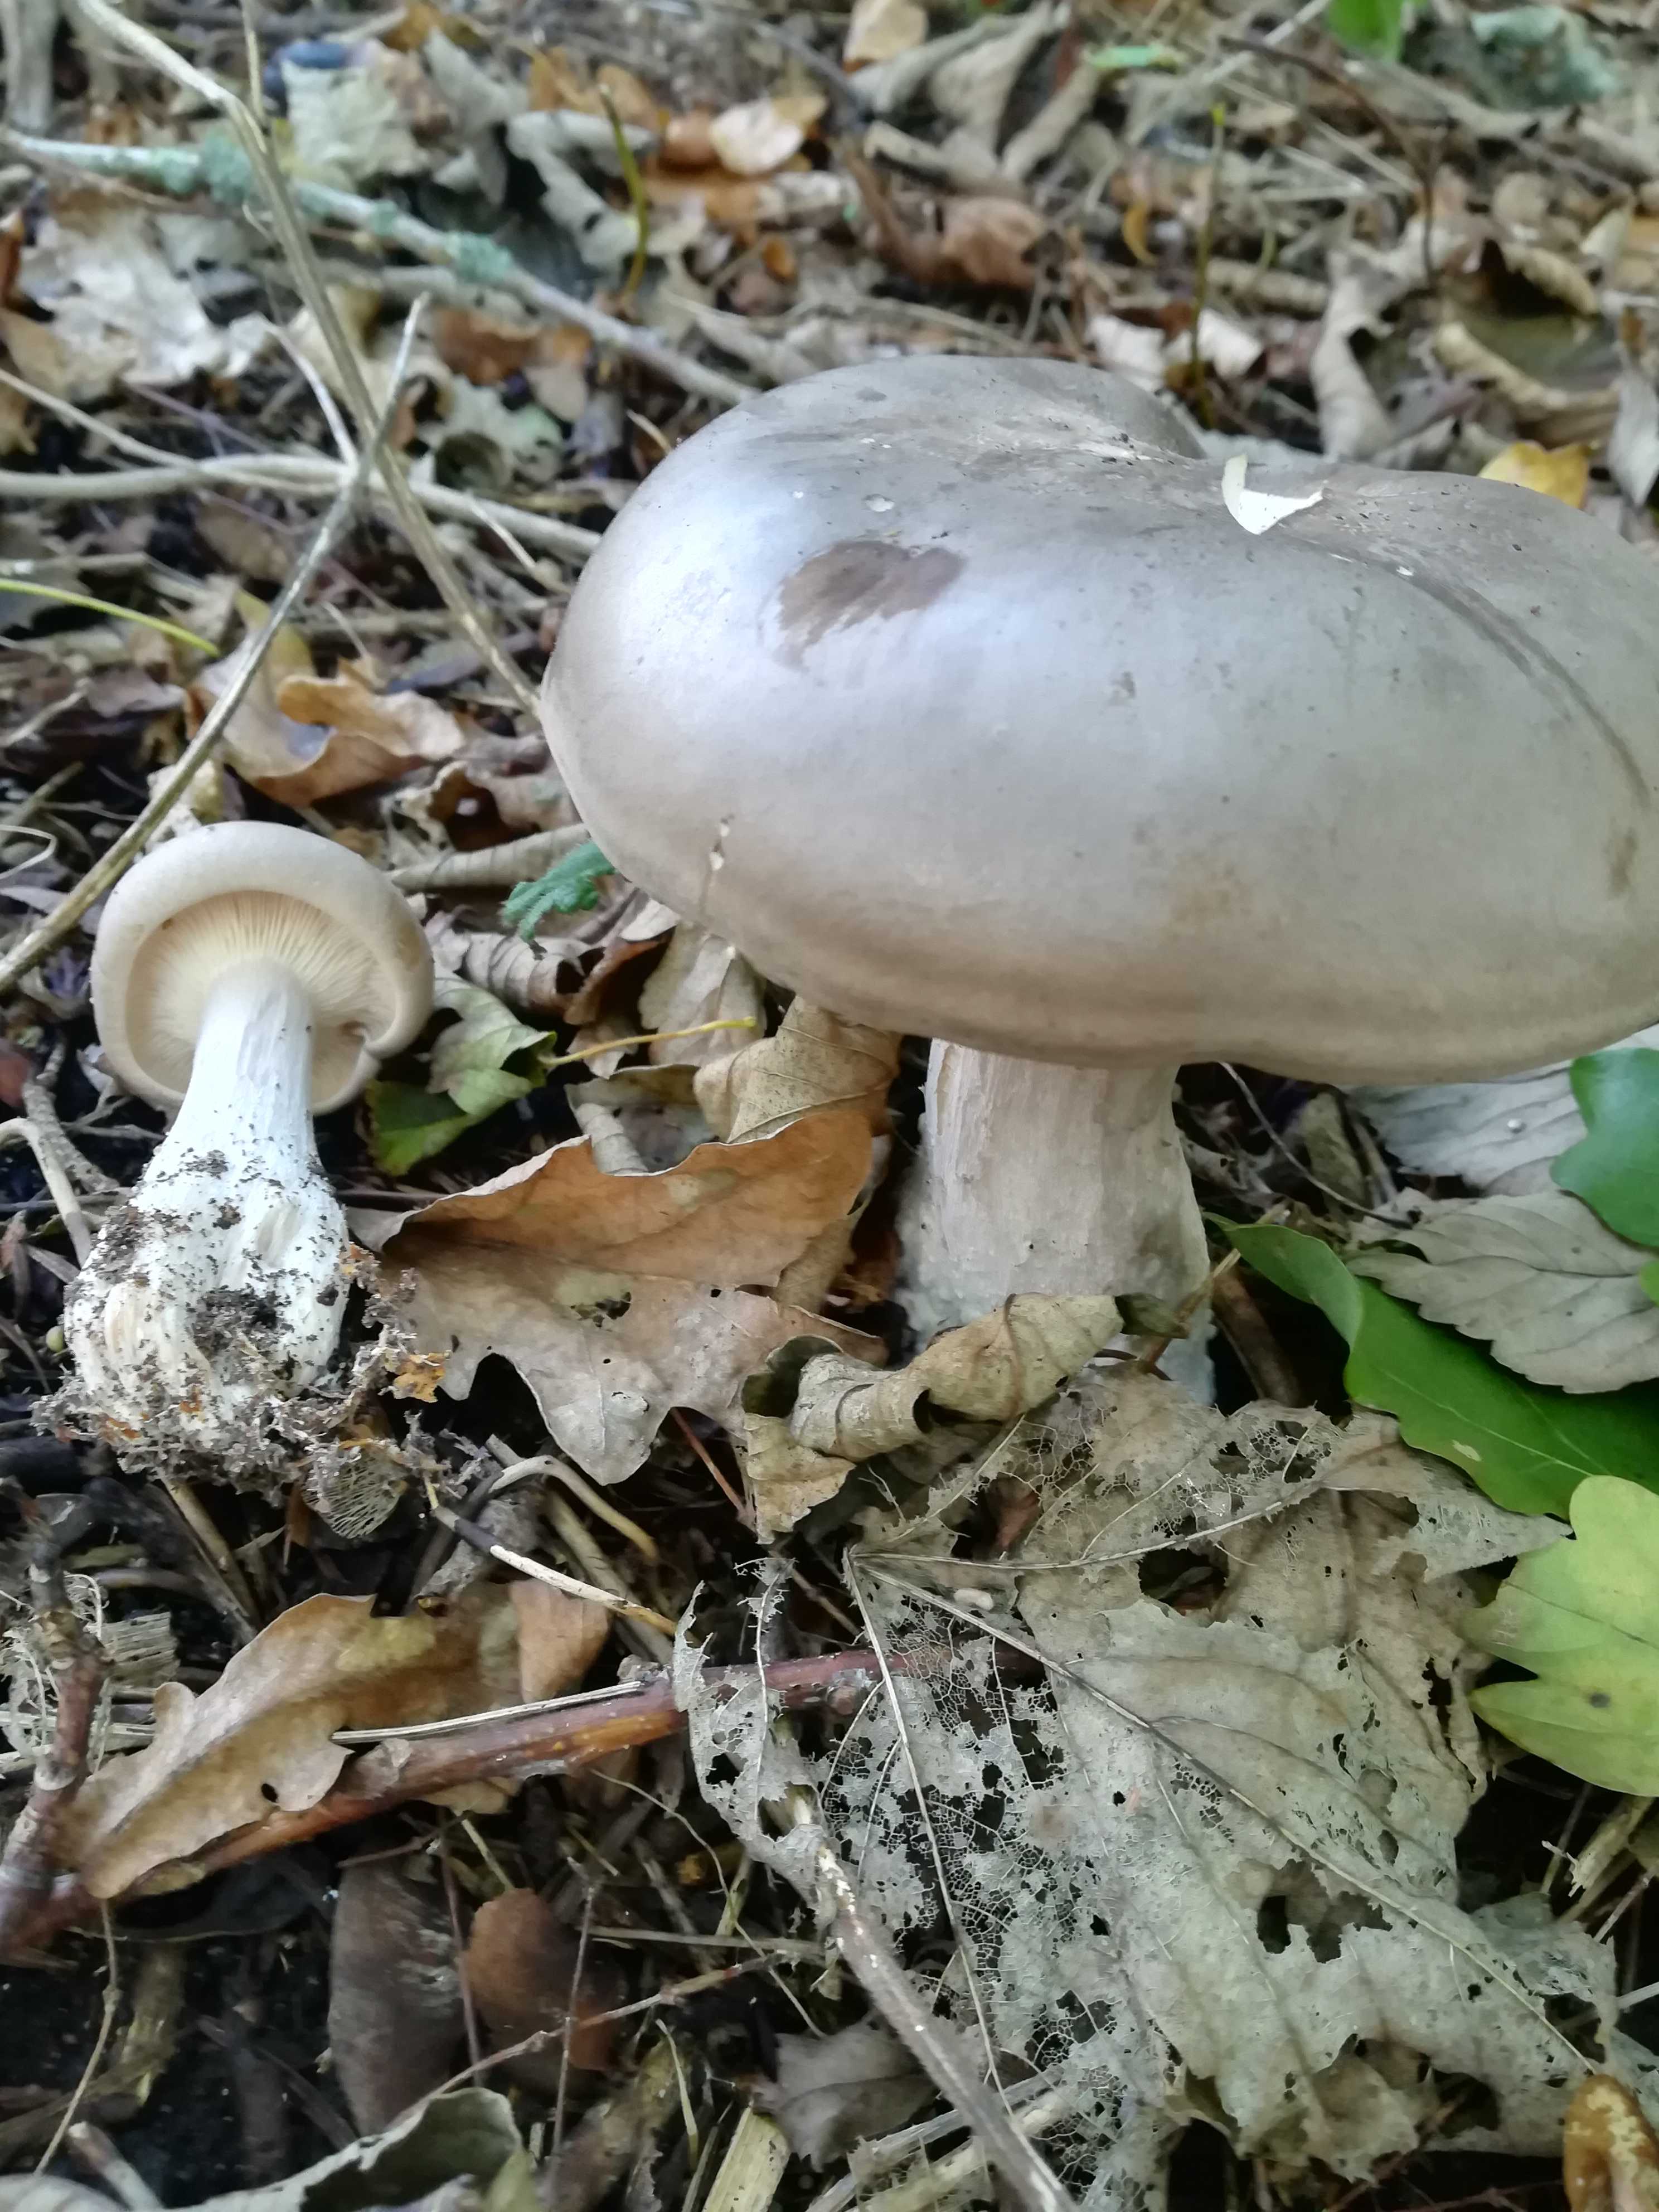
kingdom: Fungi
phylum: Basidiomycota
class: Agaricomycetes
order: Agaricales
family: Tricholomataceae
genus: Clitocybe
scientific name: Clitocybe nebularis
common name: tåge-tragthat
